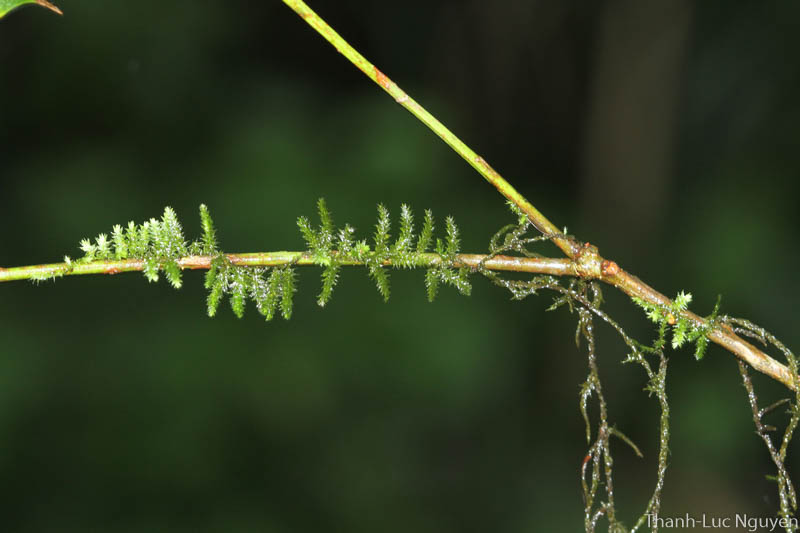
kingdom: Plantae
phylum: Bryophyta
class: Bryopsida
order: Hypnales
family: Meteoriaceae
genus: Barbella
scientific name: Barbella
